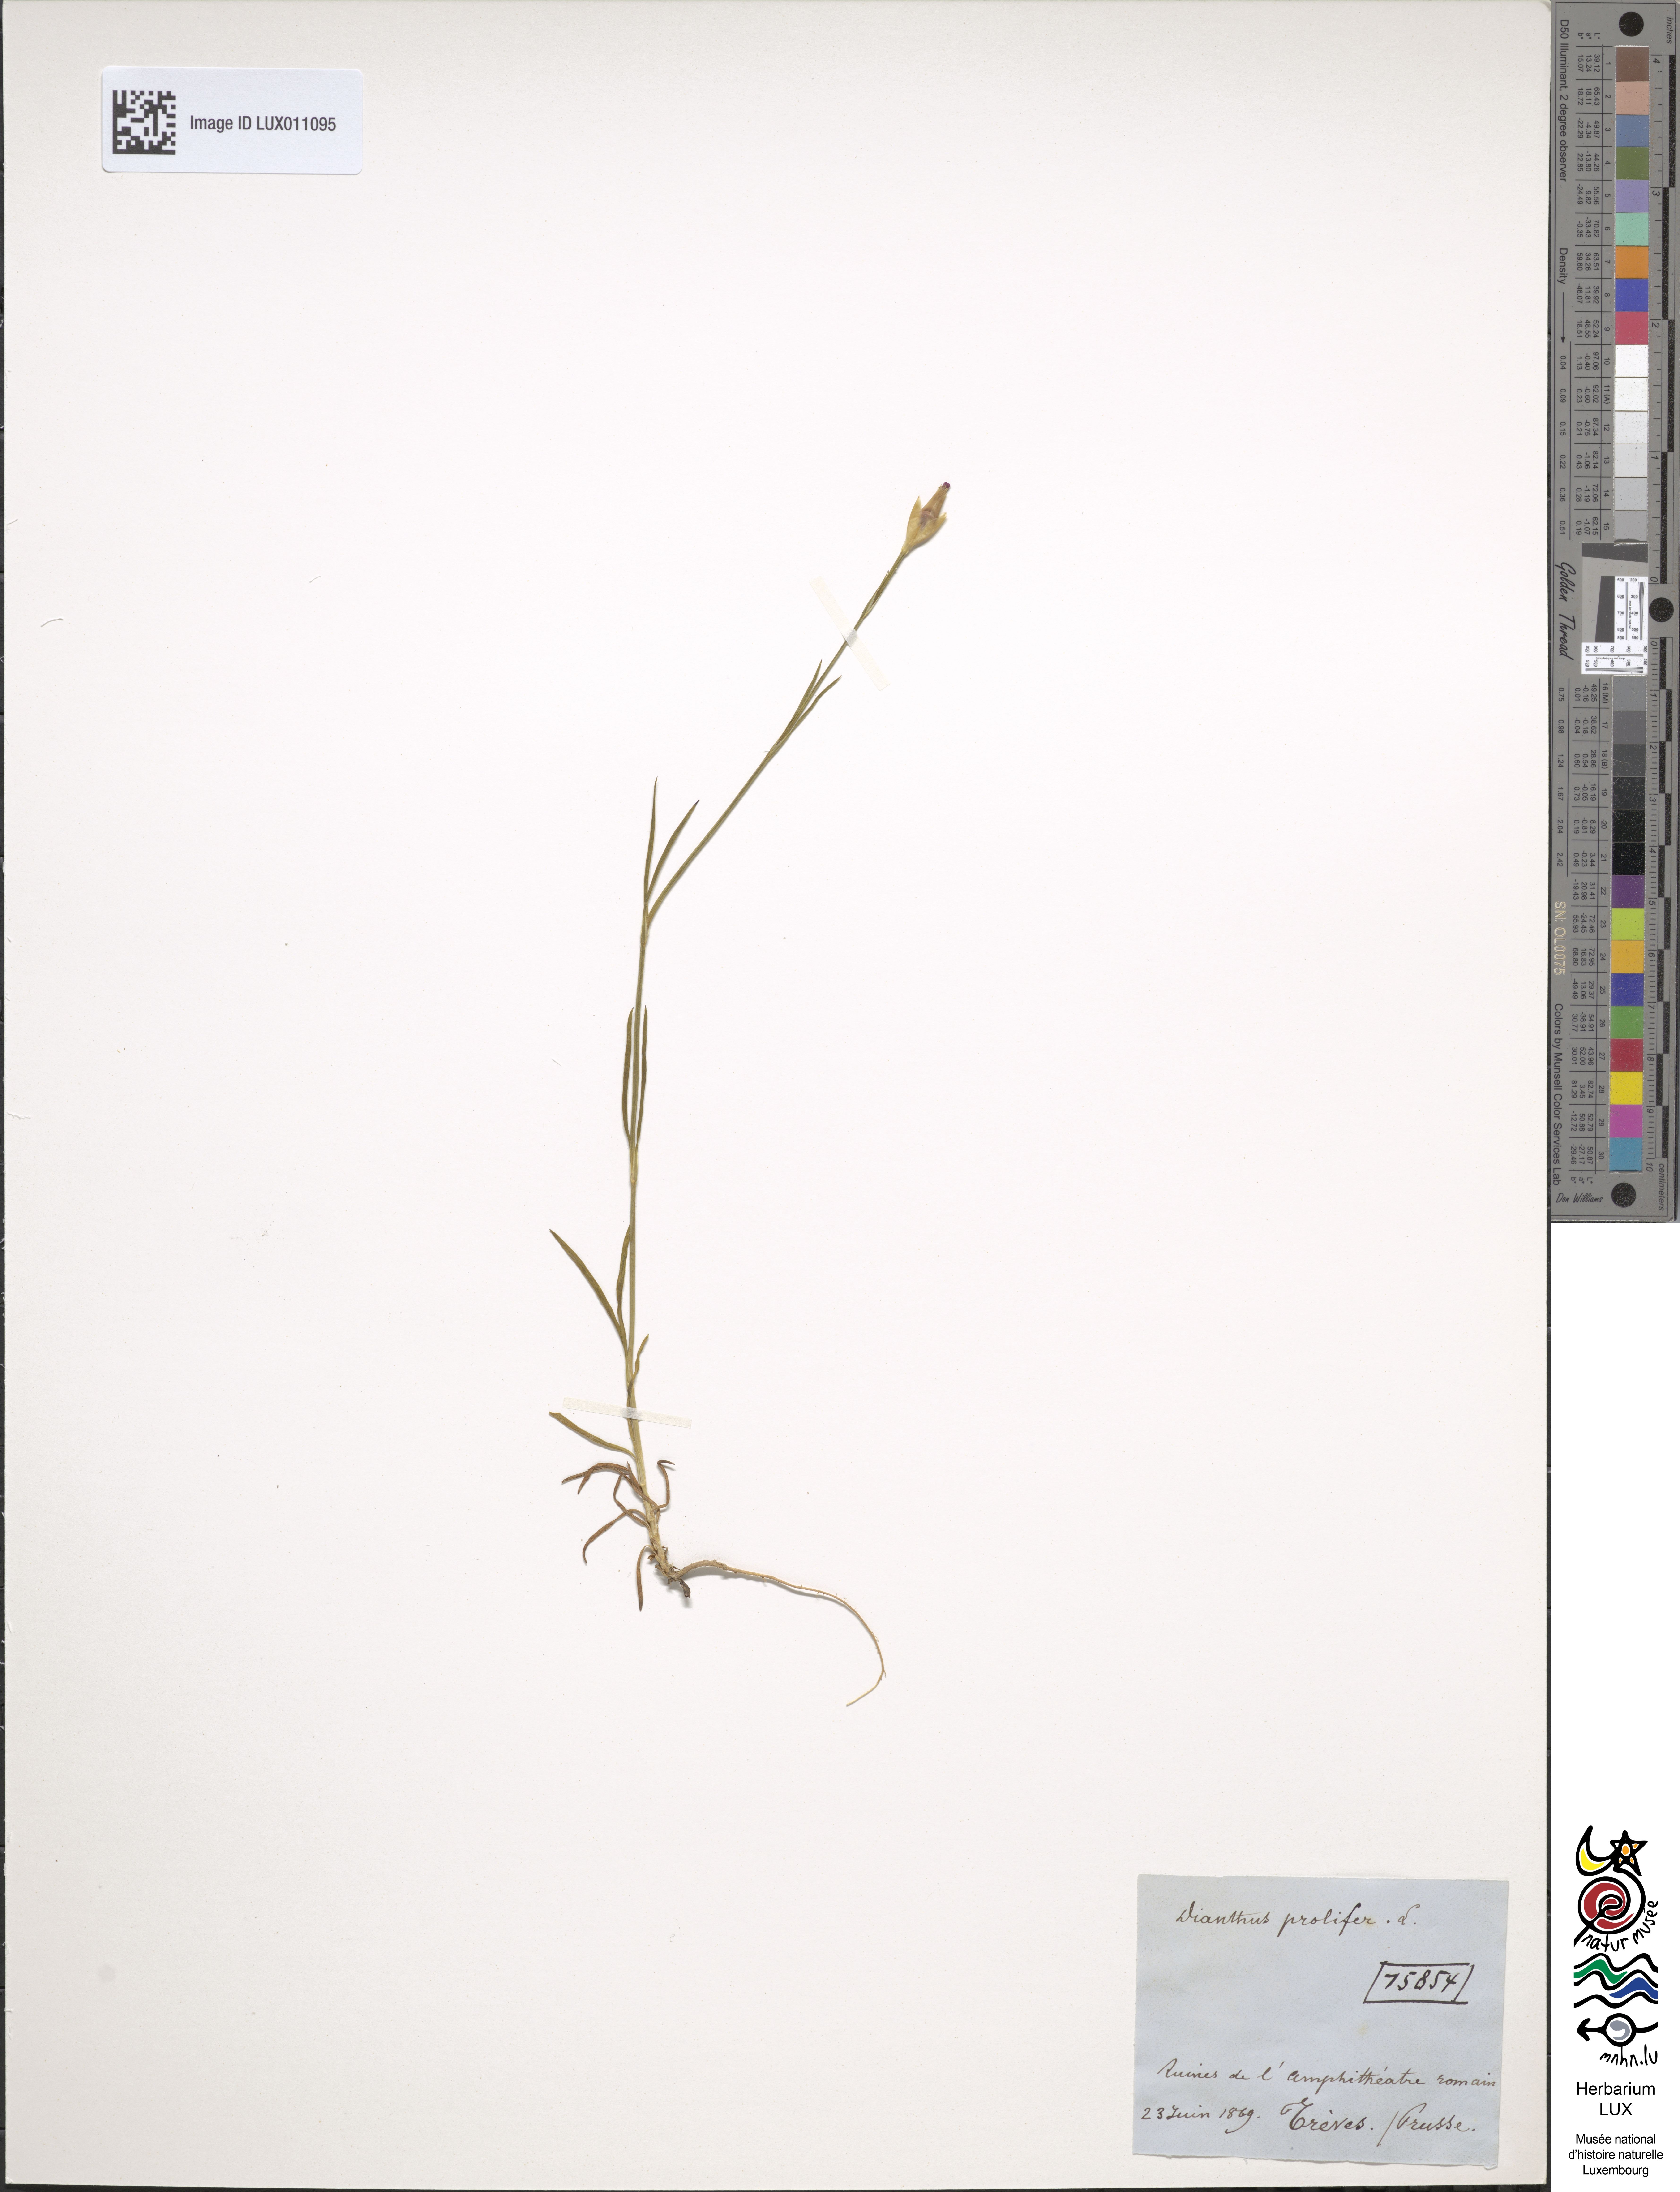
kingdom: Plantae
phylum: Tracheophyta
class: Magnoliopsida
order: Caryophyllales
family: Caryophyllaceae
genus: Petrorhagia
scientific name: Petrorhagia prolifera
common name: Proliferous pink
